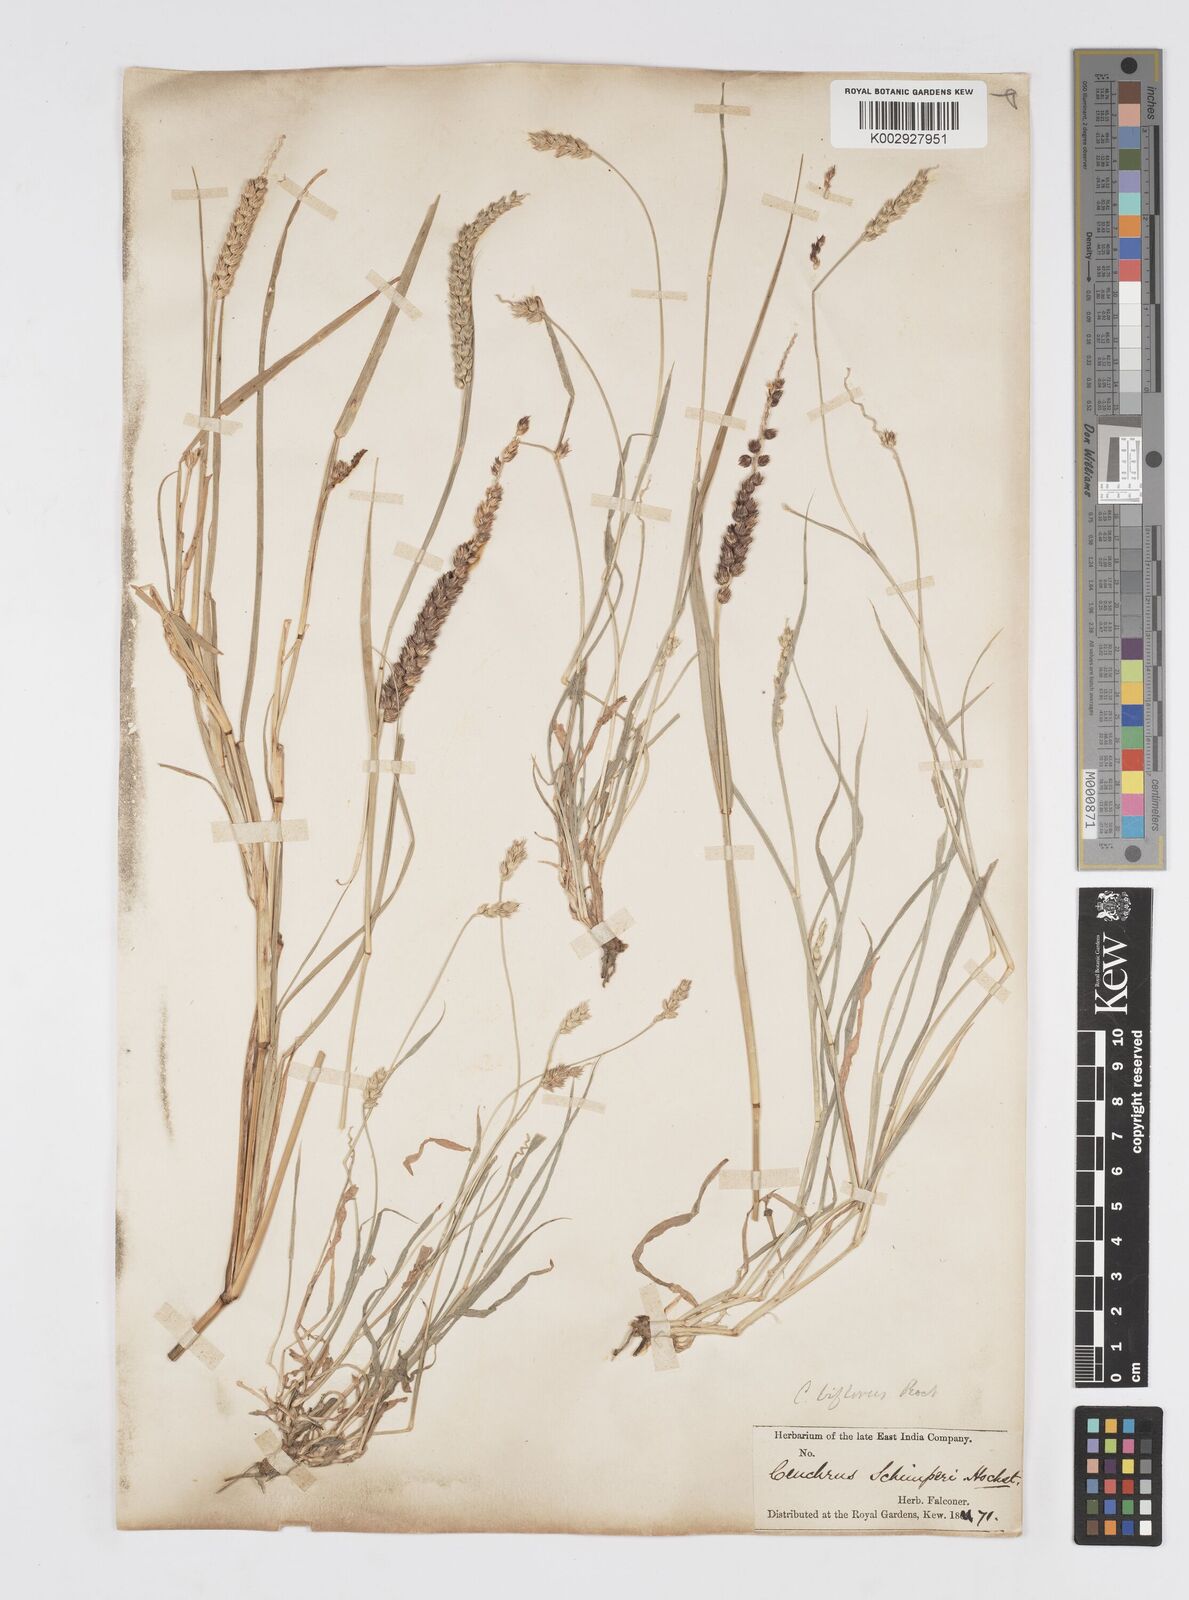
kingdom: Plantae
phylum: Tracheophyta
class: Liliopsida
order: Poales
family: Poaceae
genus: Cenchrus
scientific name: Cenchrus setigerus
